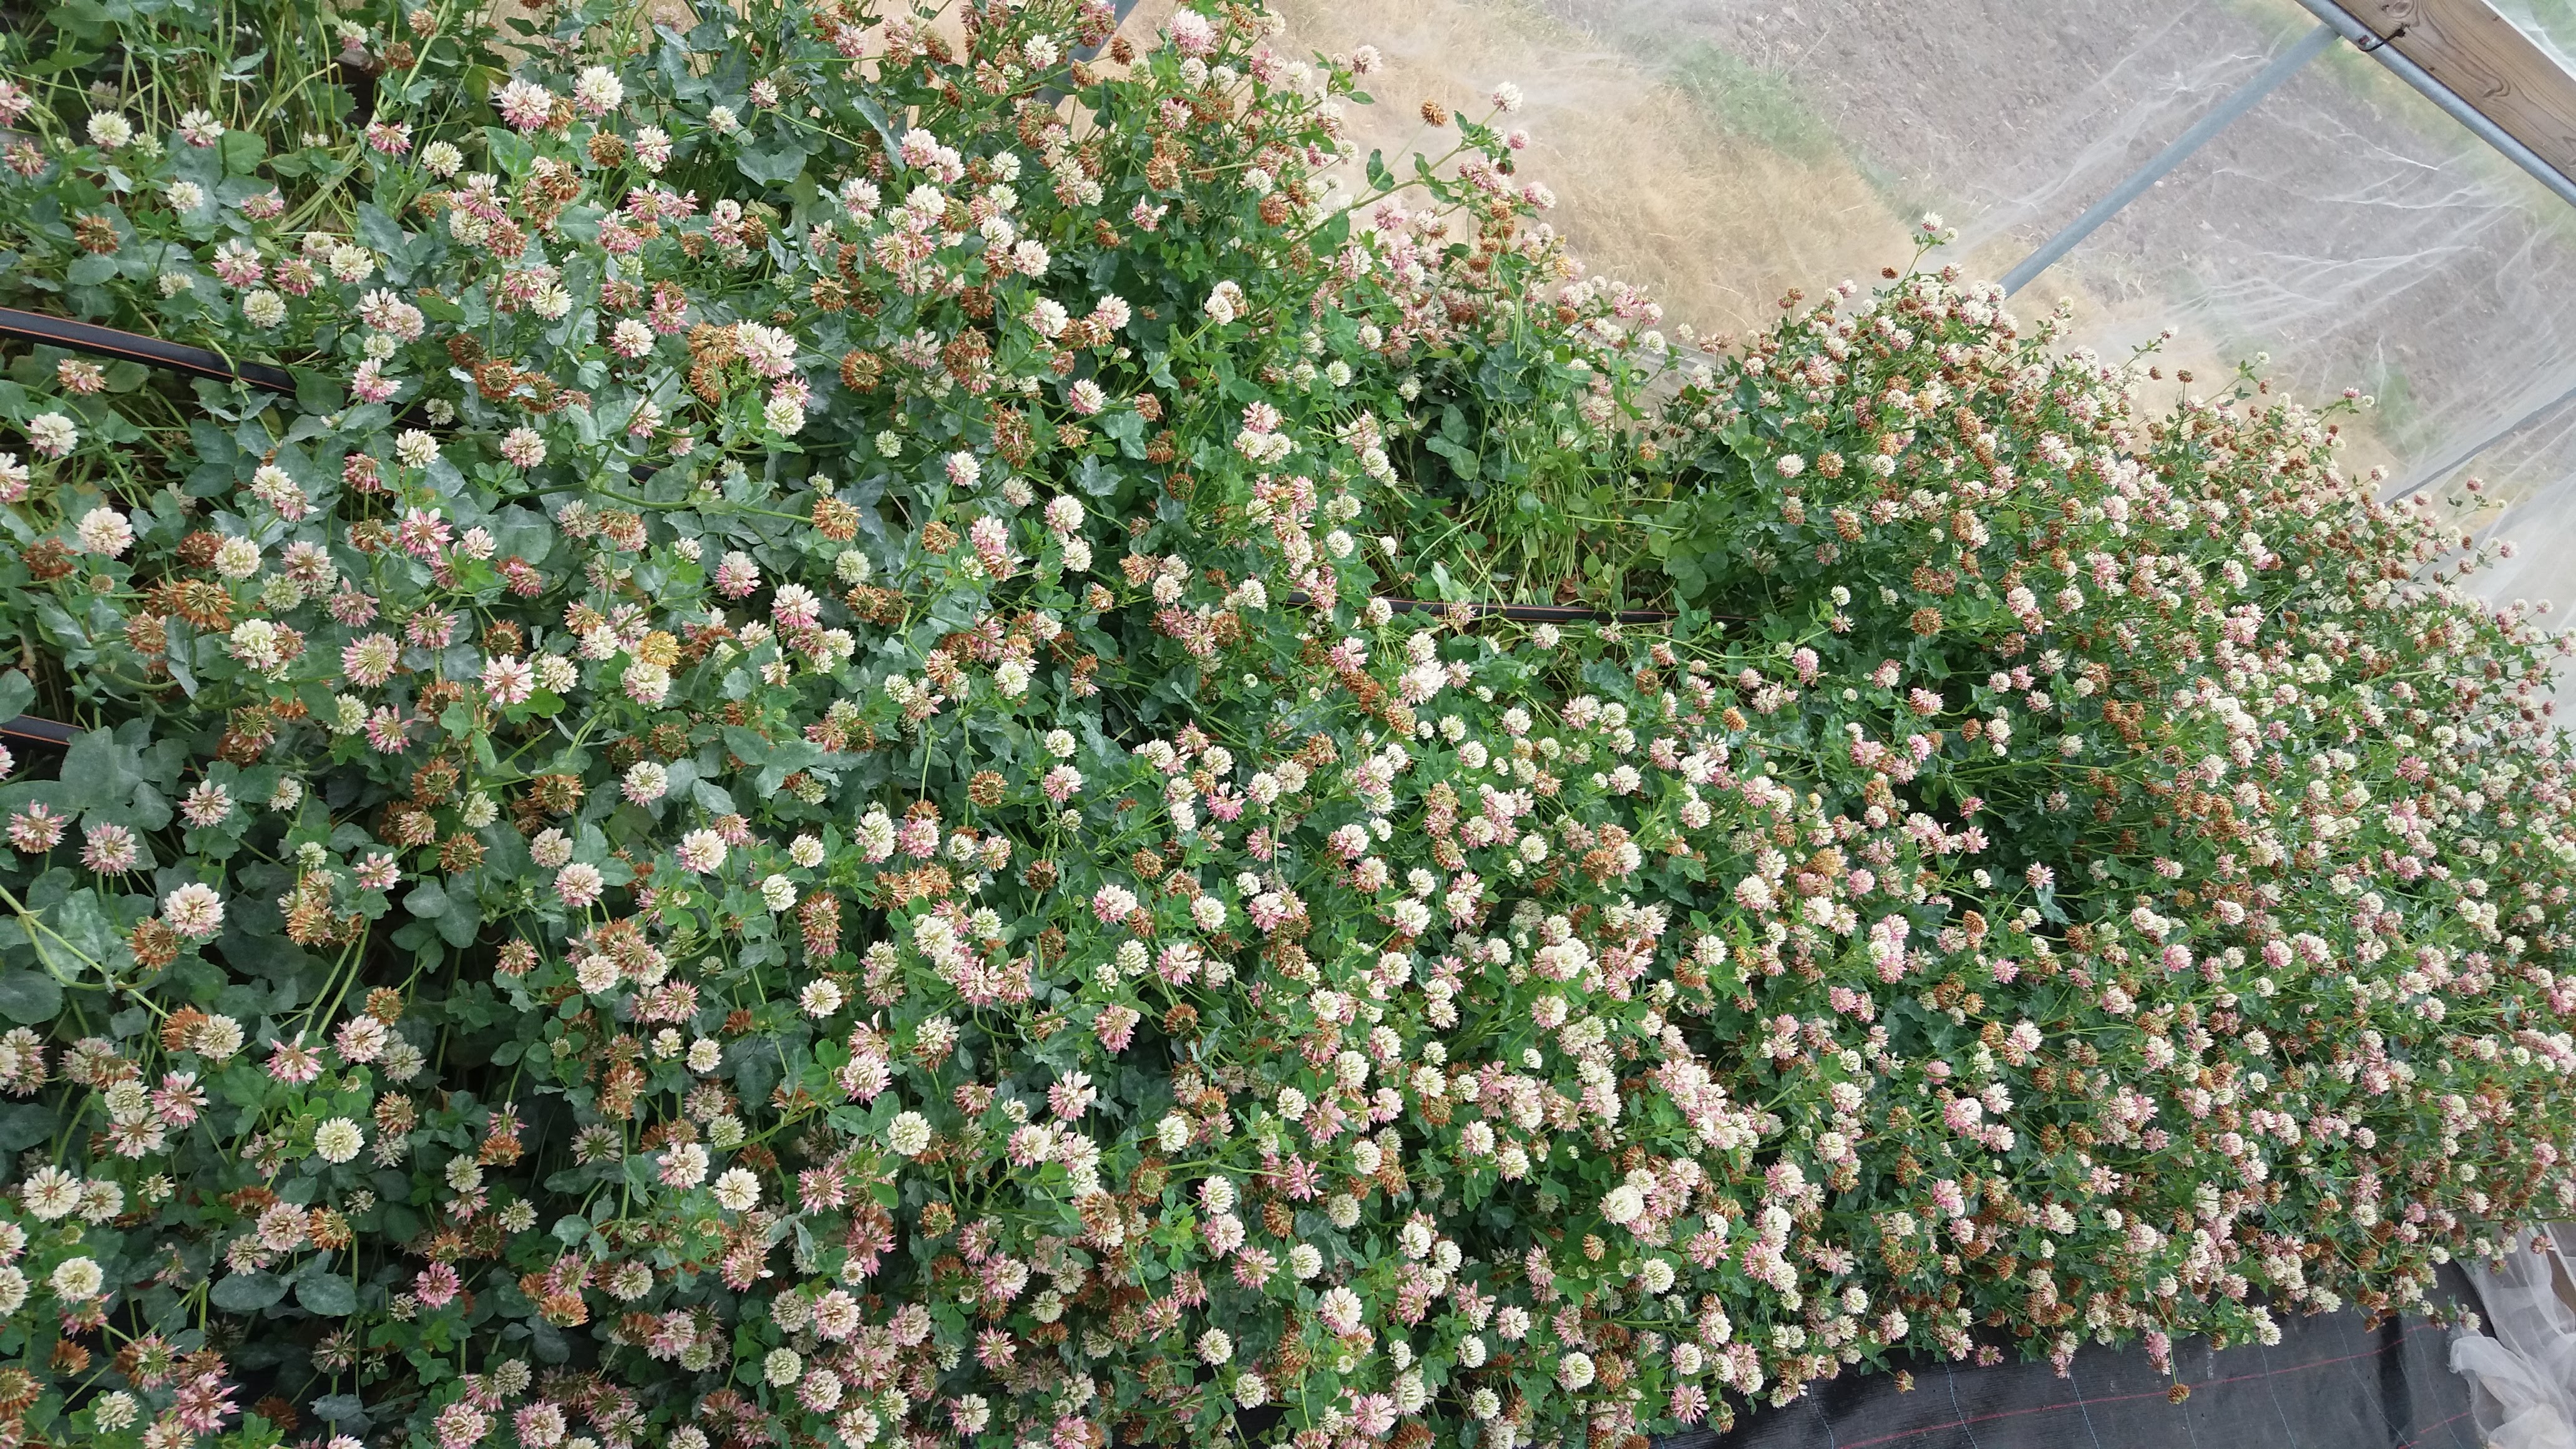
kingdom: Plantae
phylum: Tracheophyta
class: Magnoliopsida
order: Fabales
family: Fabaceae
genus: Trifolium
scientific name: Trifolium hybridum
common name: Alsike clover
